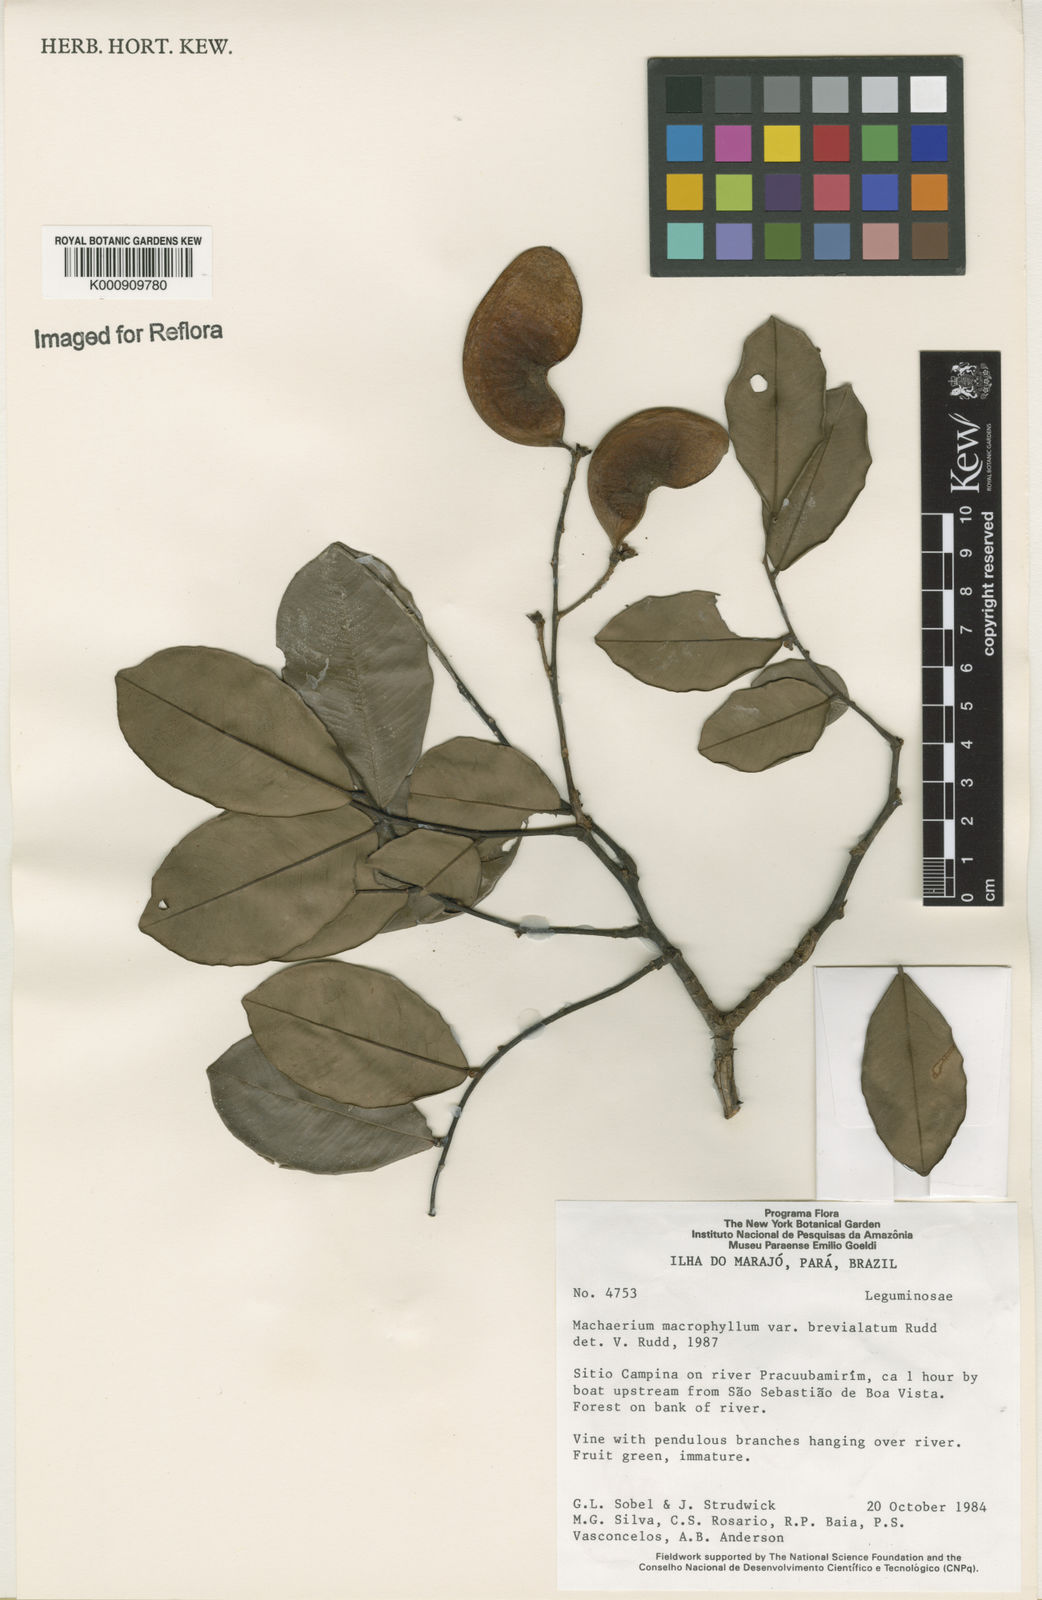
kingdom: Plantae
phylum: Tracheophyta
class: Magnoliopsida
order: Fabales
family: Fabaceae
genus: Machaerium
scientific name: Machaerium macrophyllum
